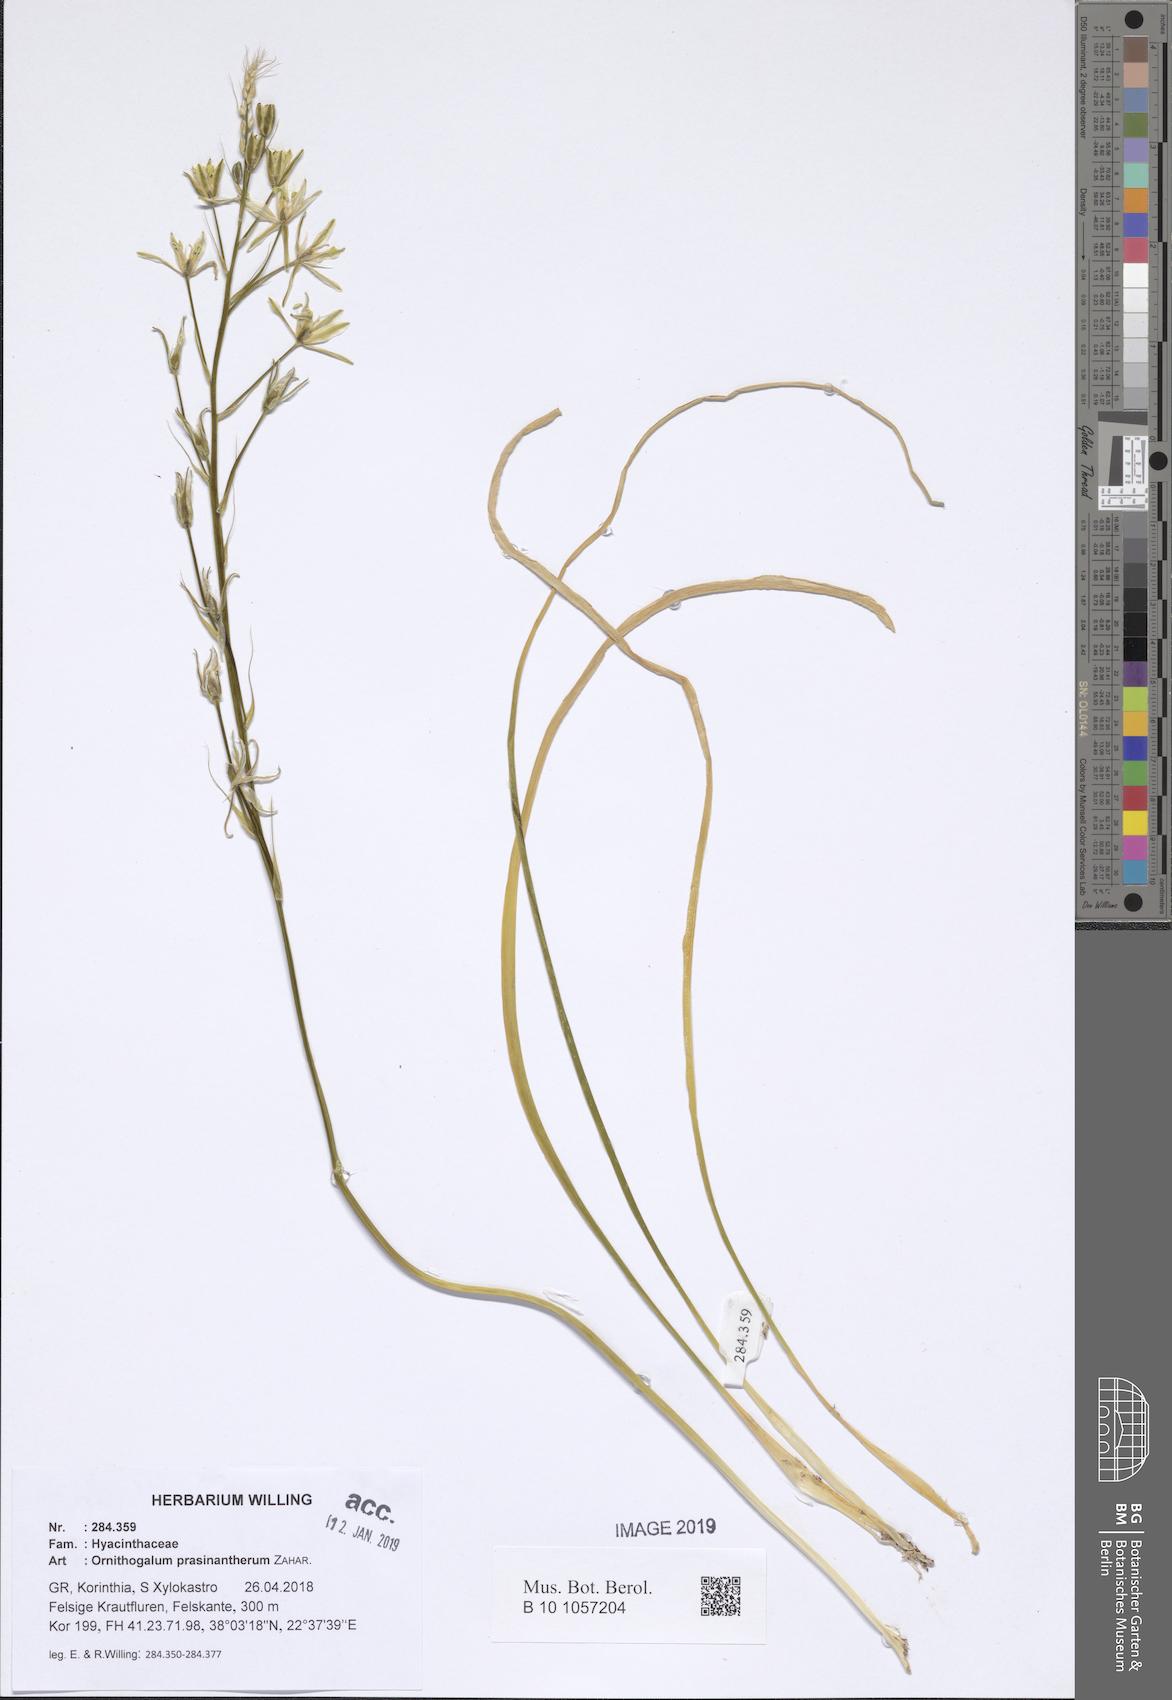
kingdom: Plantae
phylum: Tracheophyta
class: Liliopsida
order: Asparagales
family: Asparagaceae
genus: Ornithogalum
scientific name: Ornithogalum prasinantherum
